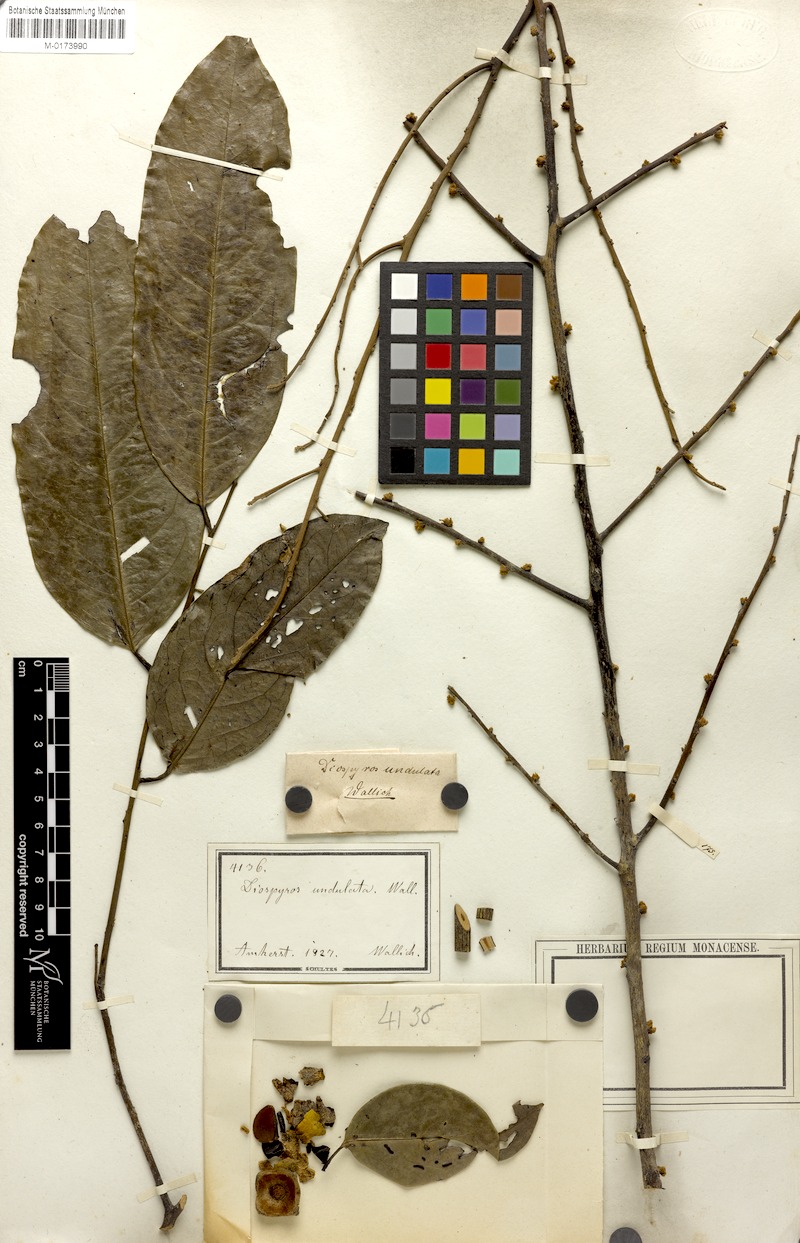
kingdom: Plantae
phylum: Tracheophyta
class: Magnoliopsida
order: Ericales
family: Ebenaceae
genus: Diospyros
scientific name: Diospyros undulata
